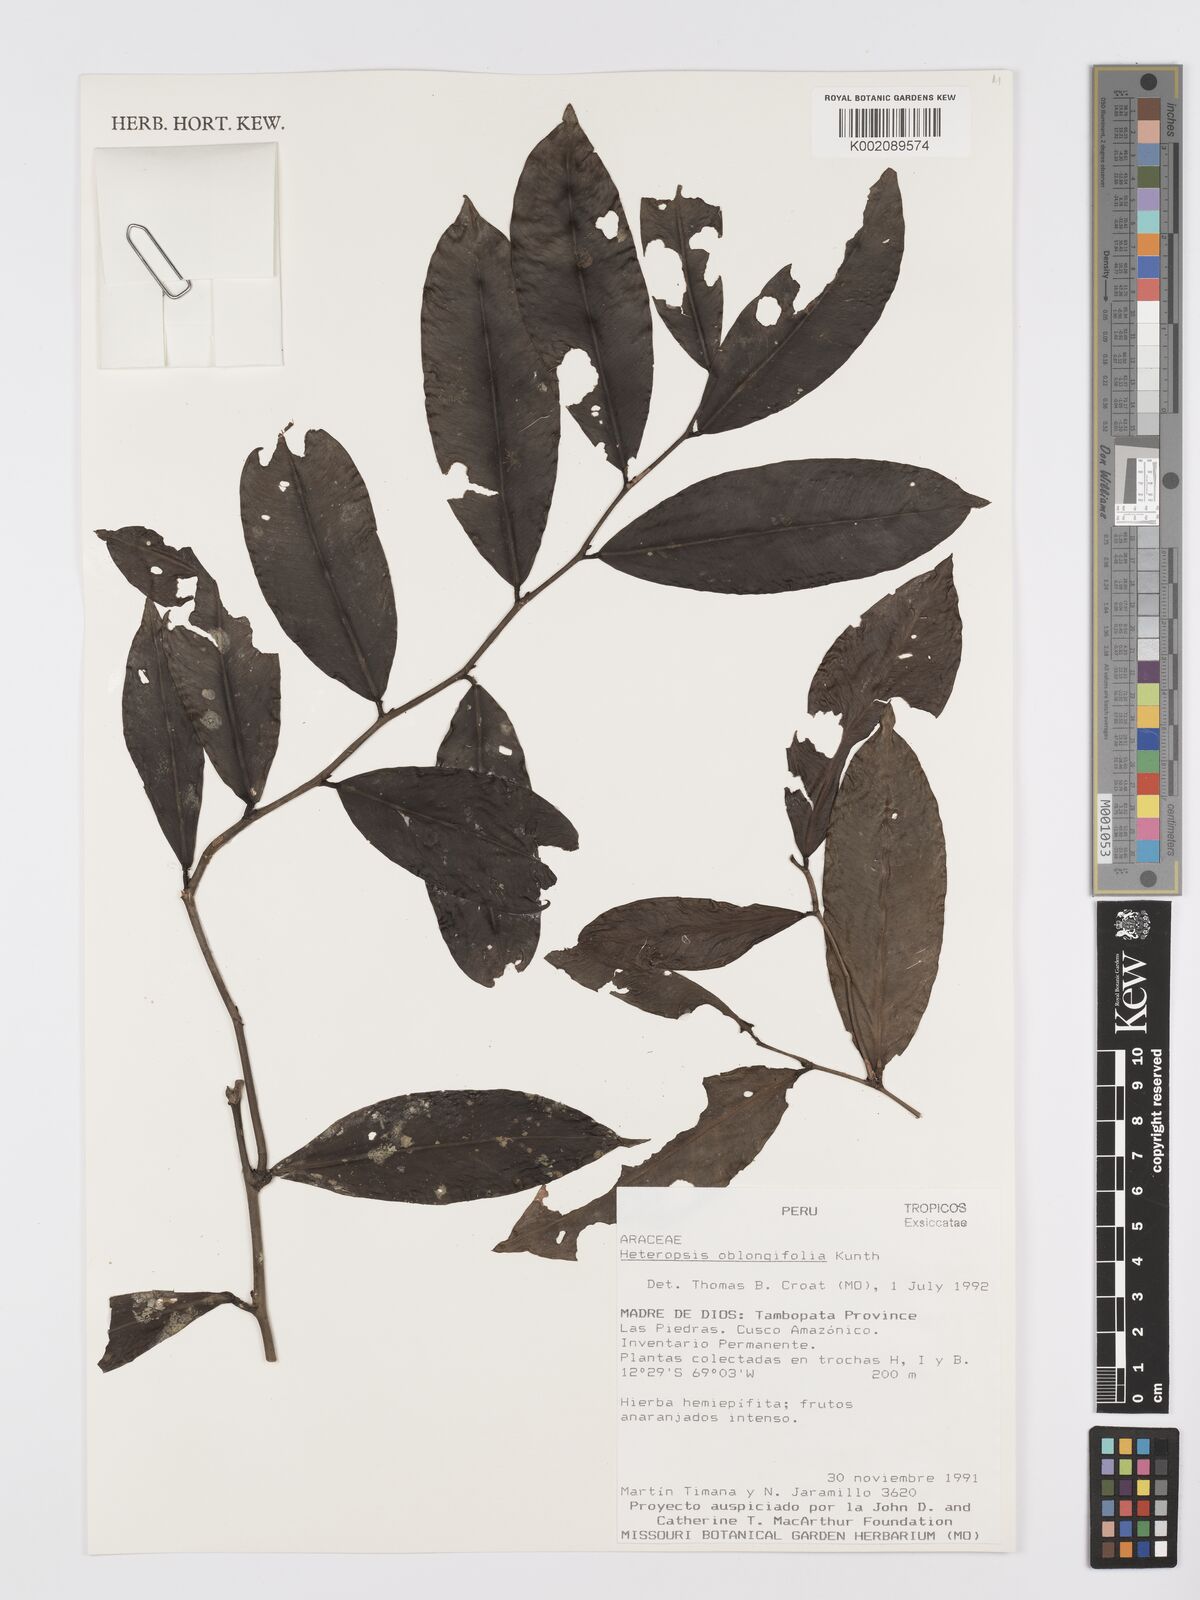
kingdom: Plantae
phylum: Tracheophyta
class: Liliopsida
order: Alismatales
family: Araceae
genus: Heteropsis
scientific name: Heteropsis oblongifolia
